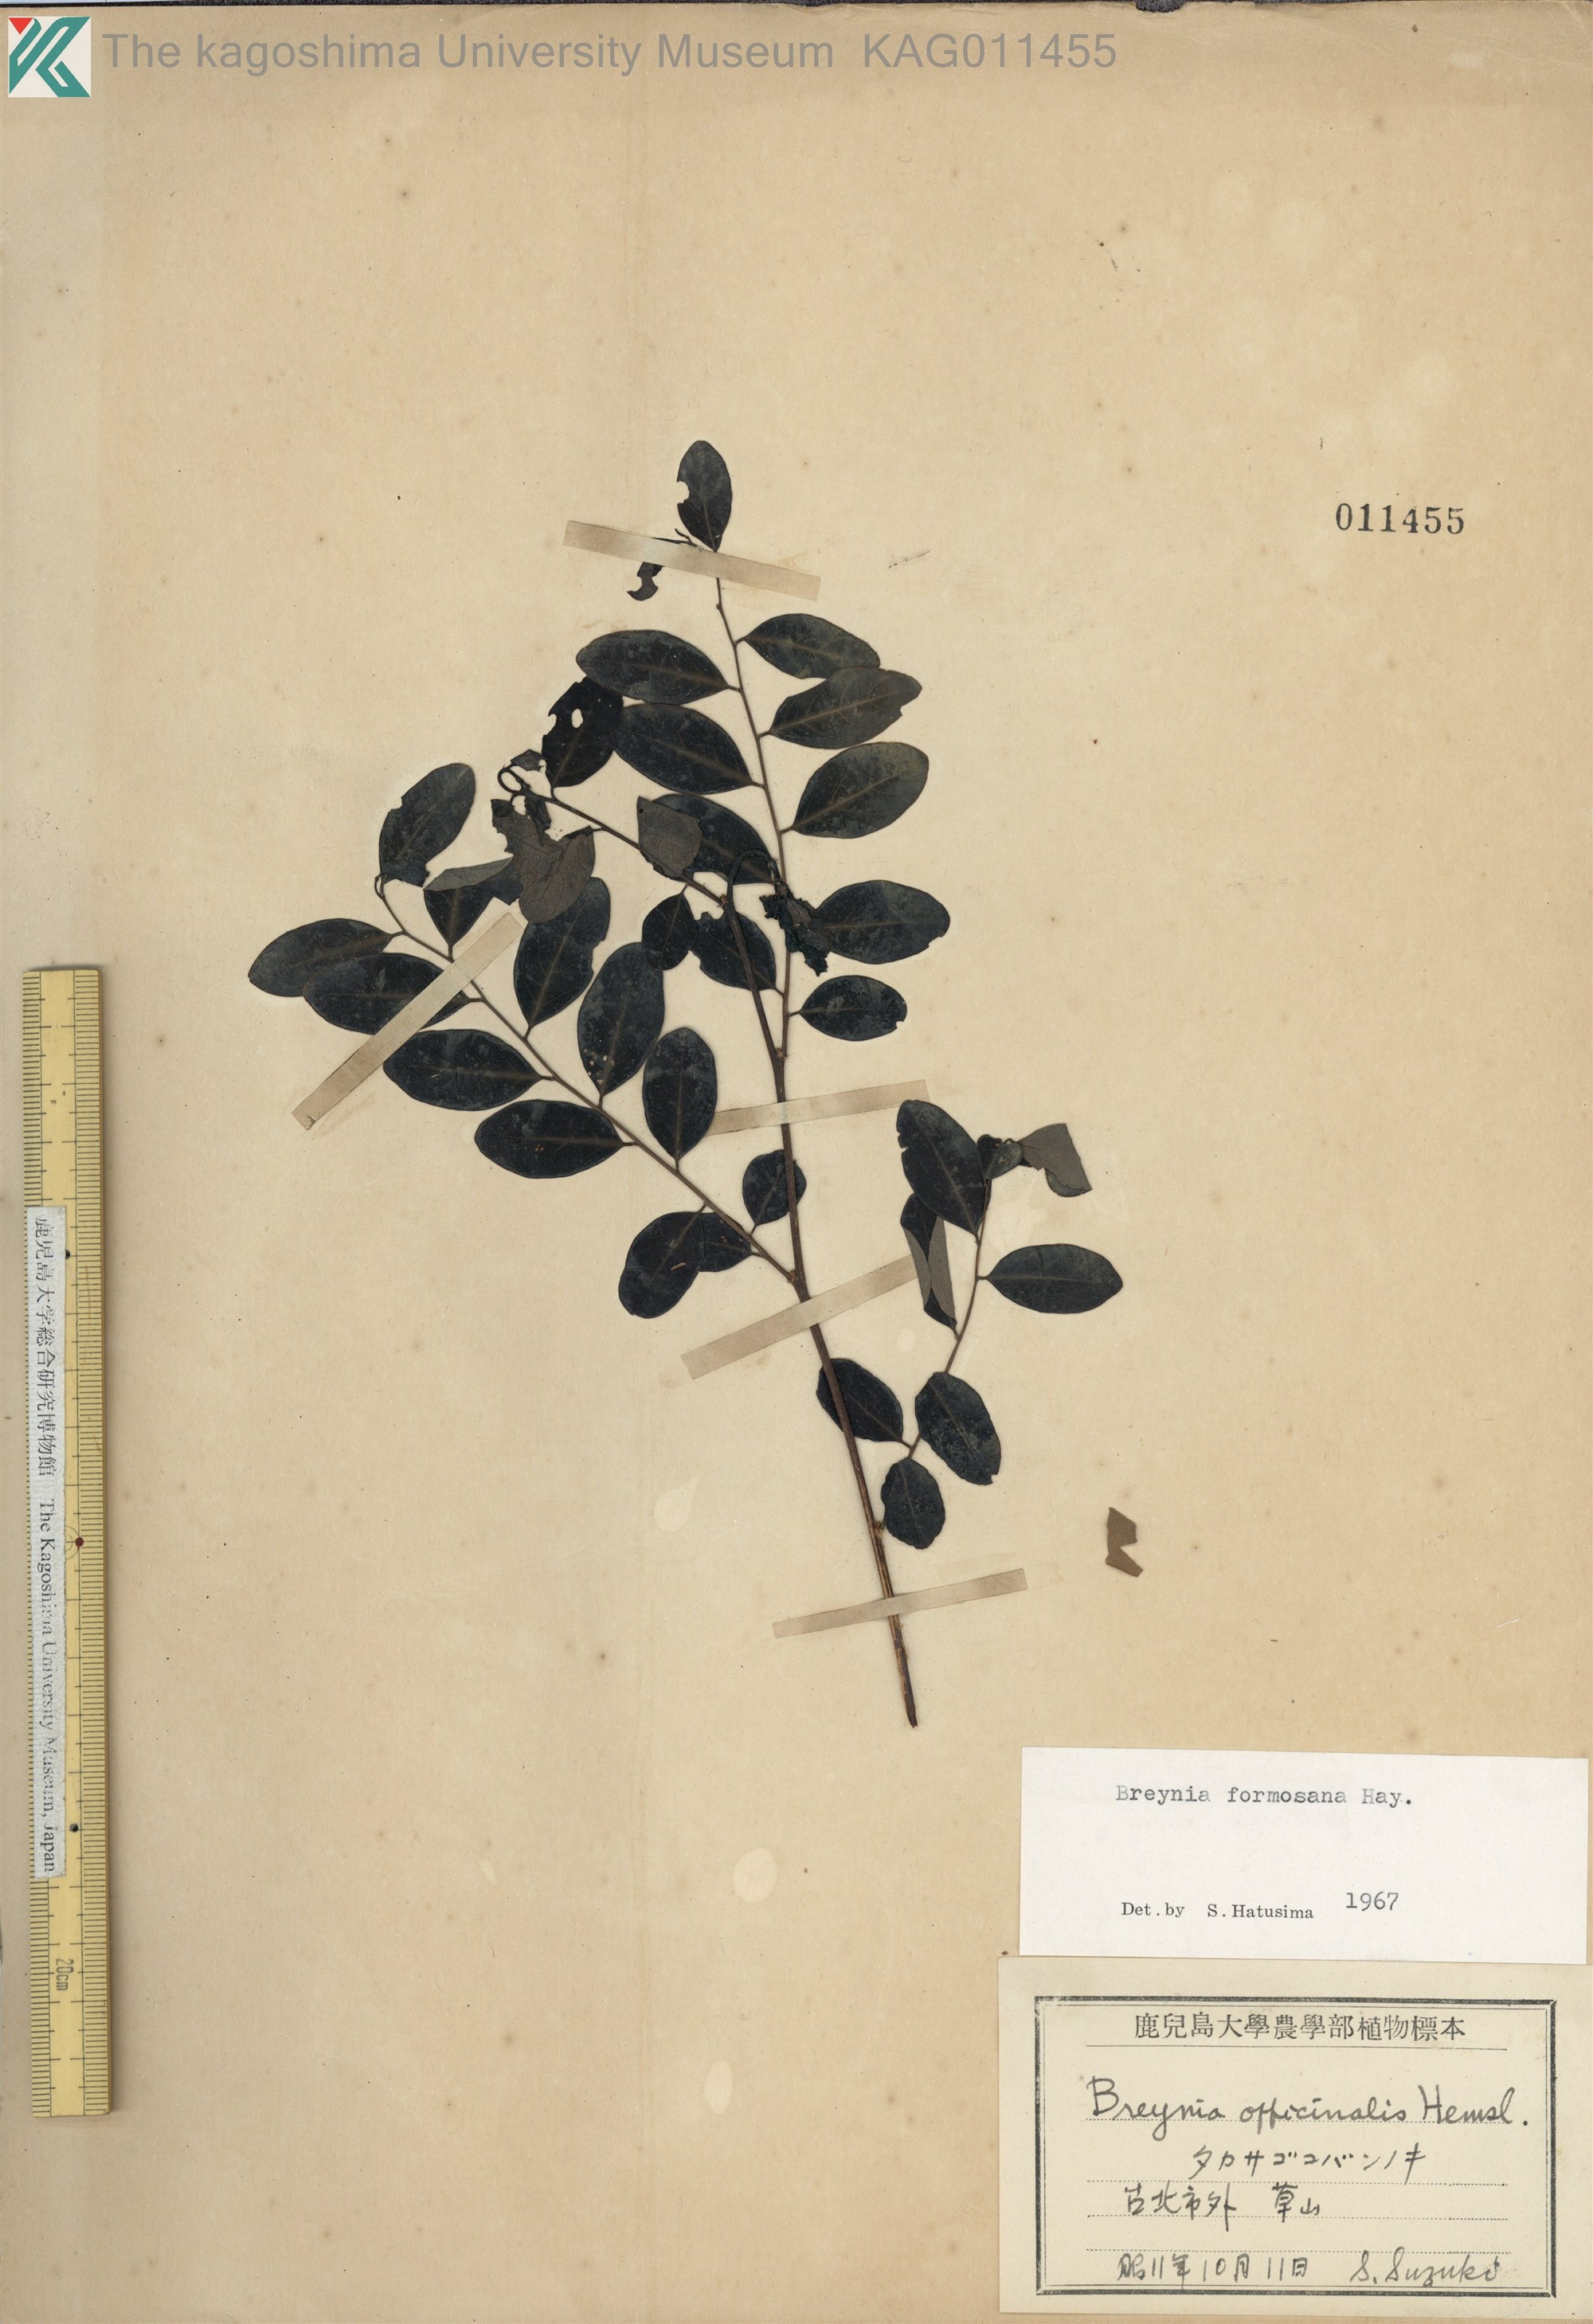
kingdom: Plantae
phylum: Tracheophyta
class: Magnoliopsida
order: Malpighiales
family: Phyllanthaceae
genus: Breynia
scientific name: Breynia officinalis
